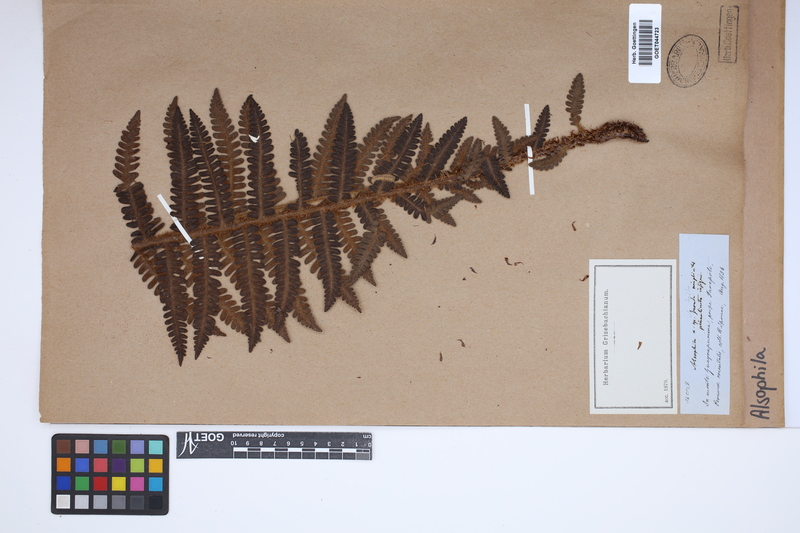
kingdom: Plantae
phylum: Tracheophyta
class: Polypodiopsida
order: Cyatheales
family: Cyatheaceae
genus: Alsophila
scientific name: Alsophila
